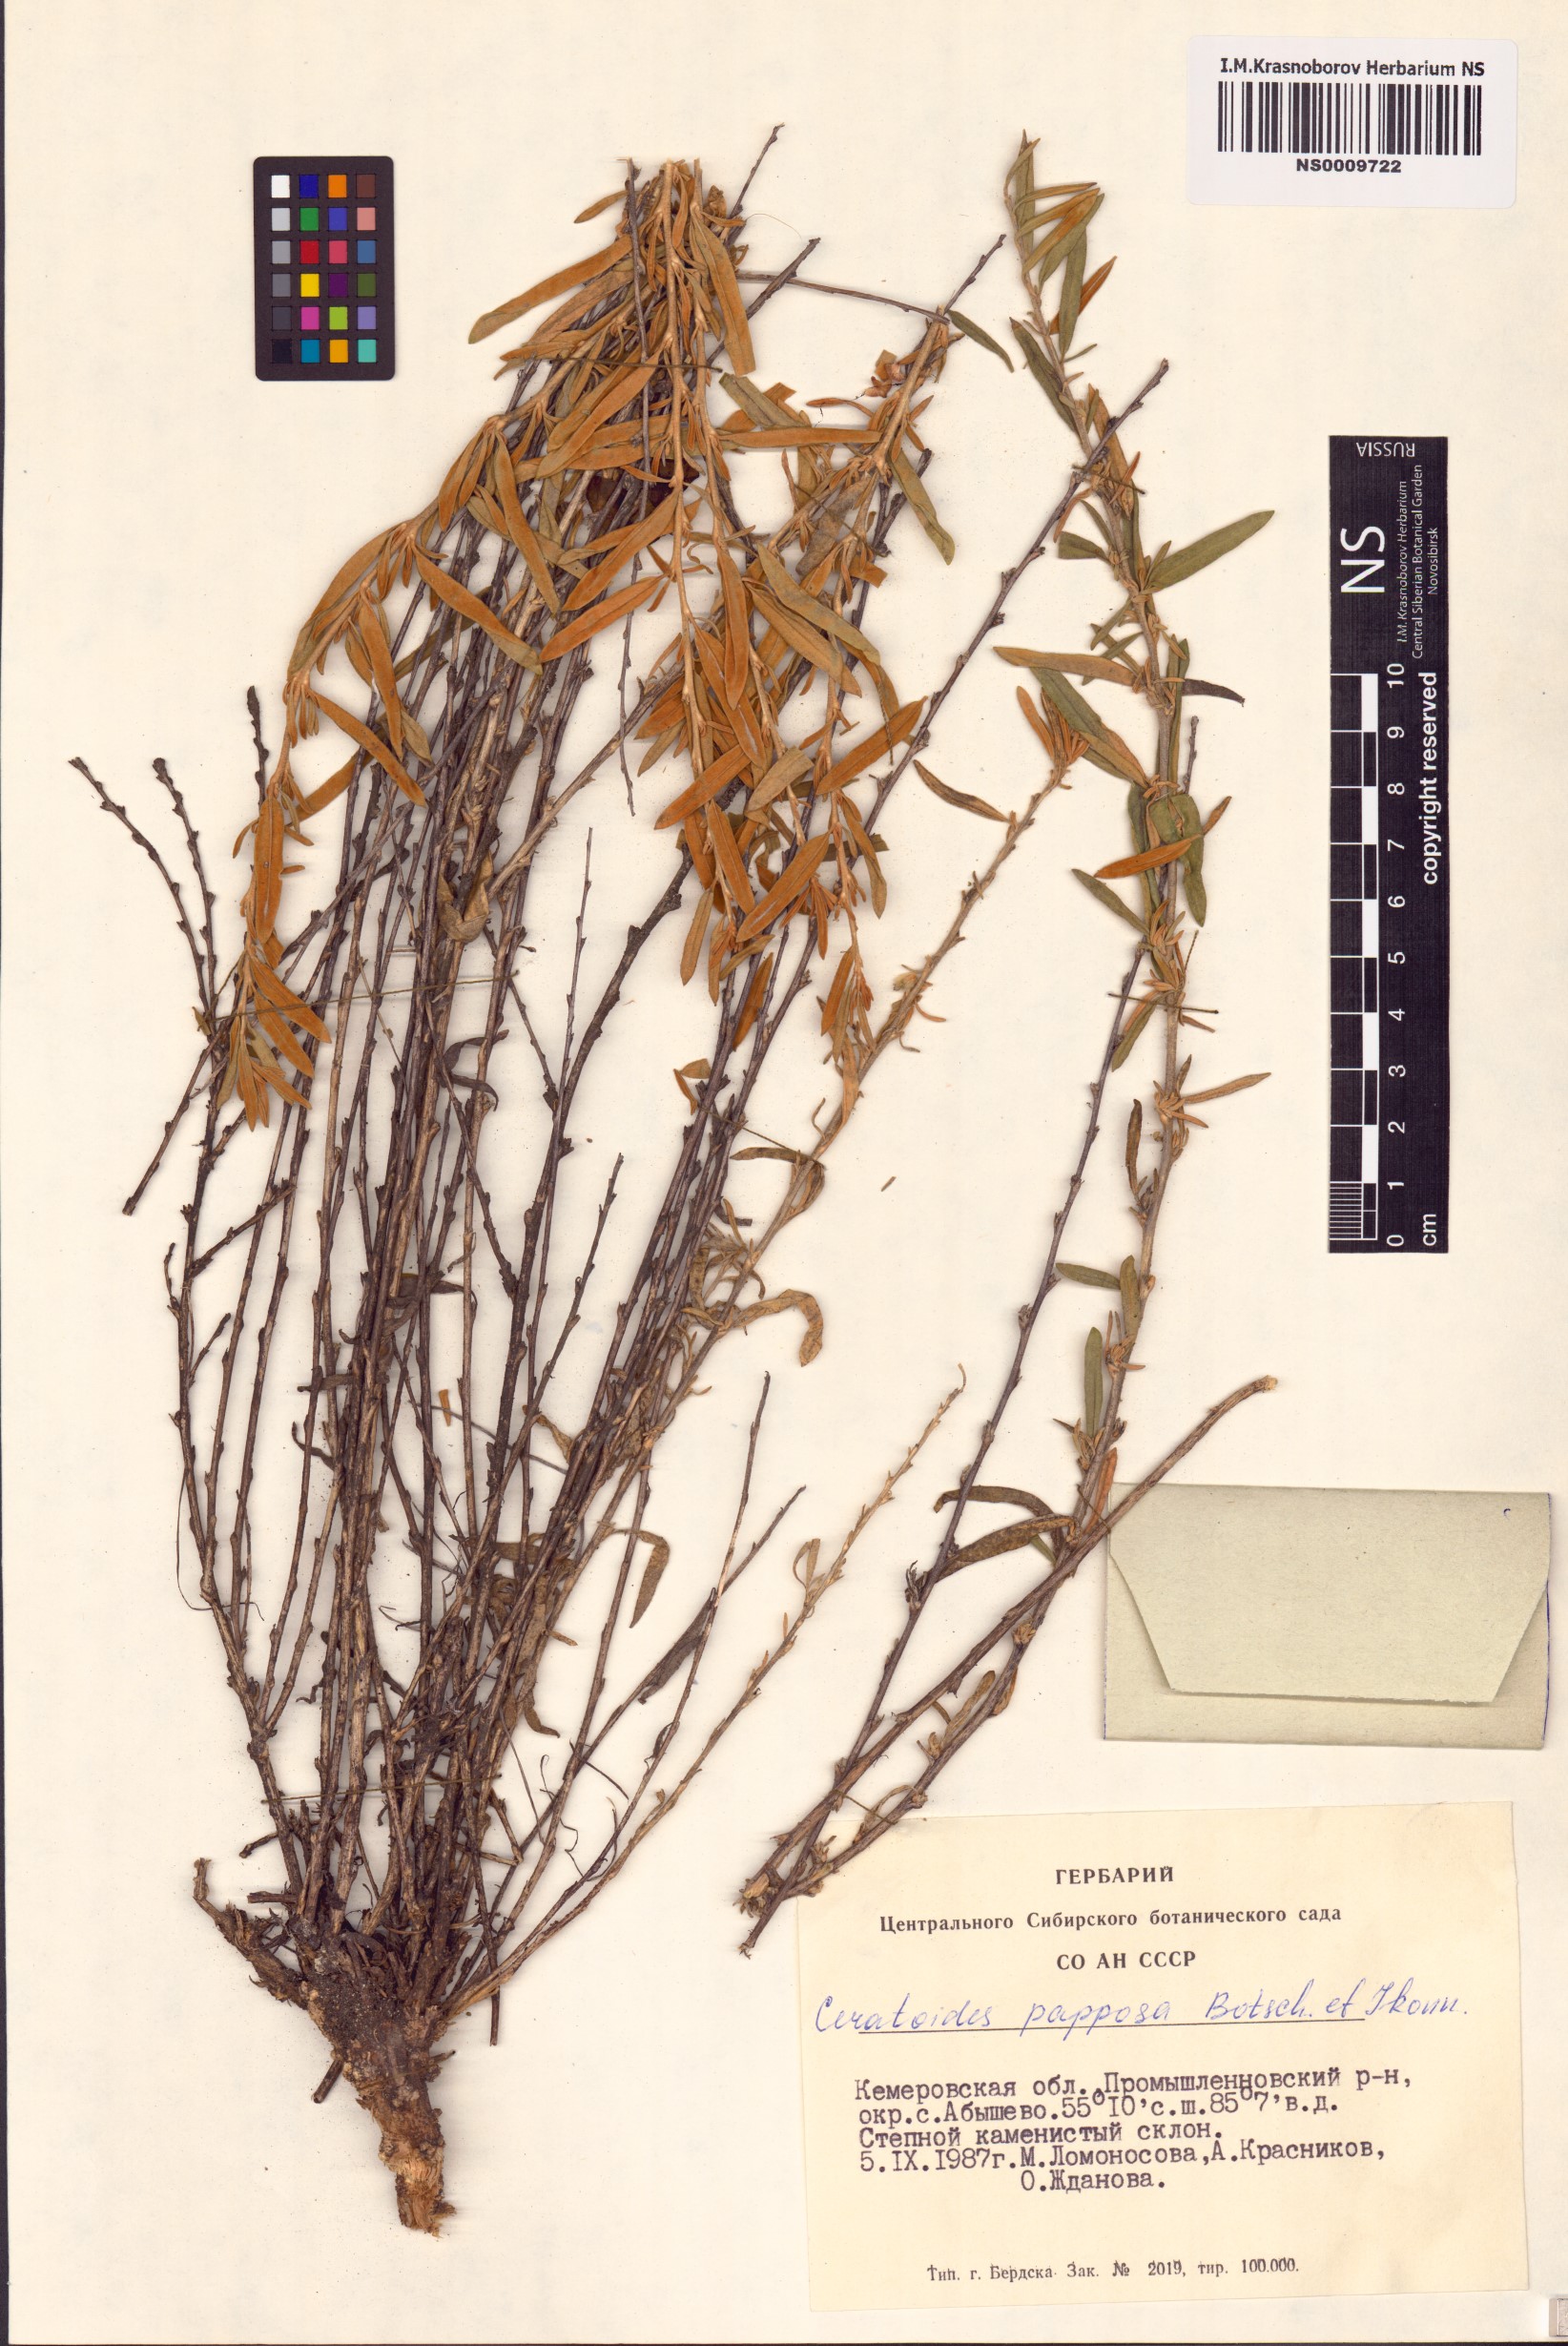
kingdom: Plantae
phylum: Tracheophyta
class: Magnoliopsida
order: Caryophyllales
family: Amaranthaceae
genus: Krascheninnikovia
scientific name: Krascheninnikovia ceratoides
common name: Pamirian winterfat
